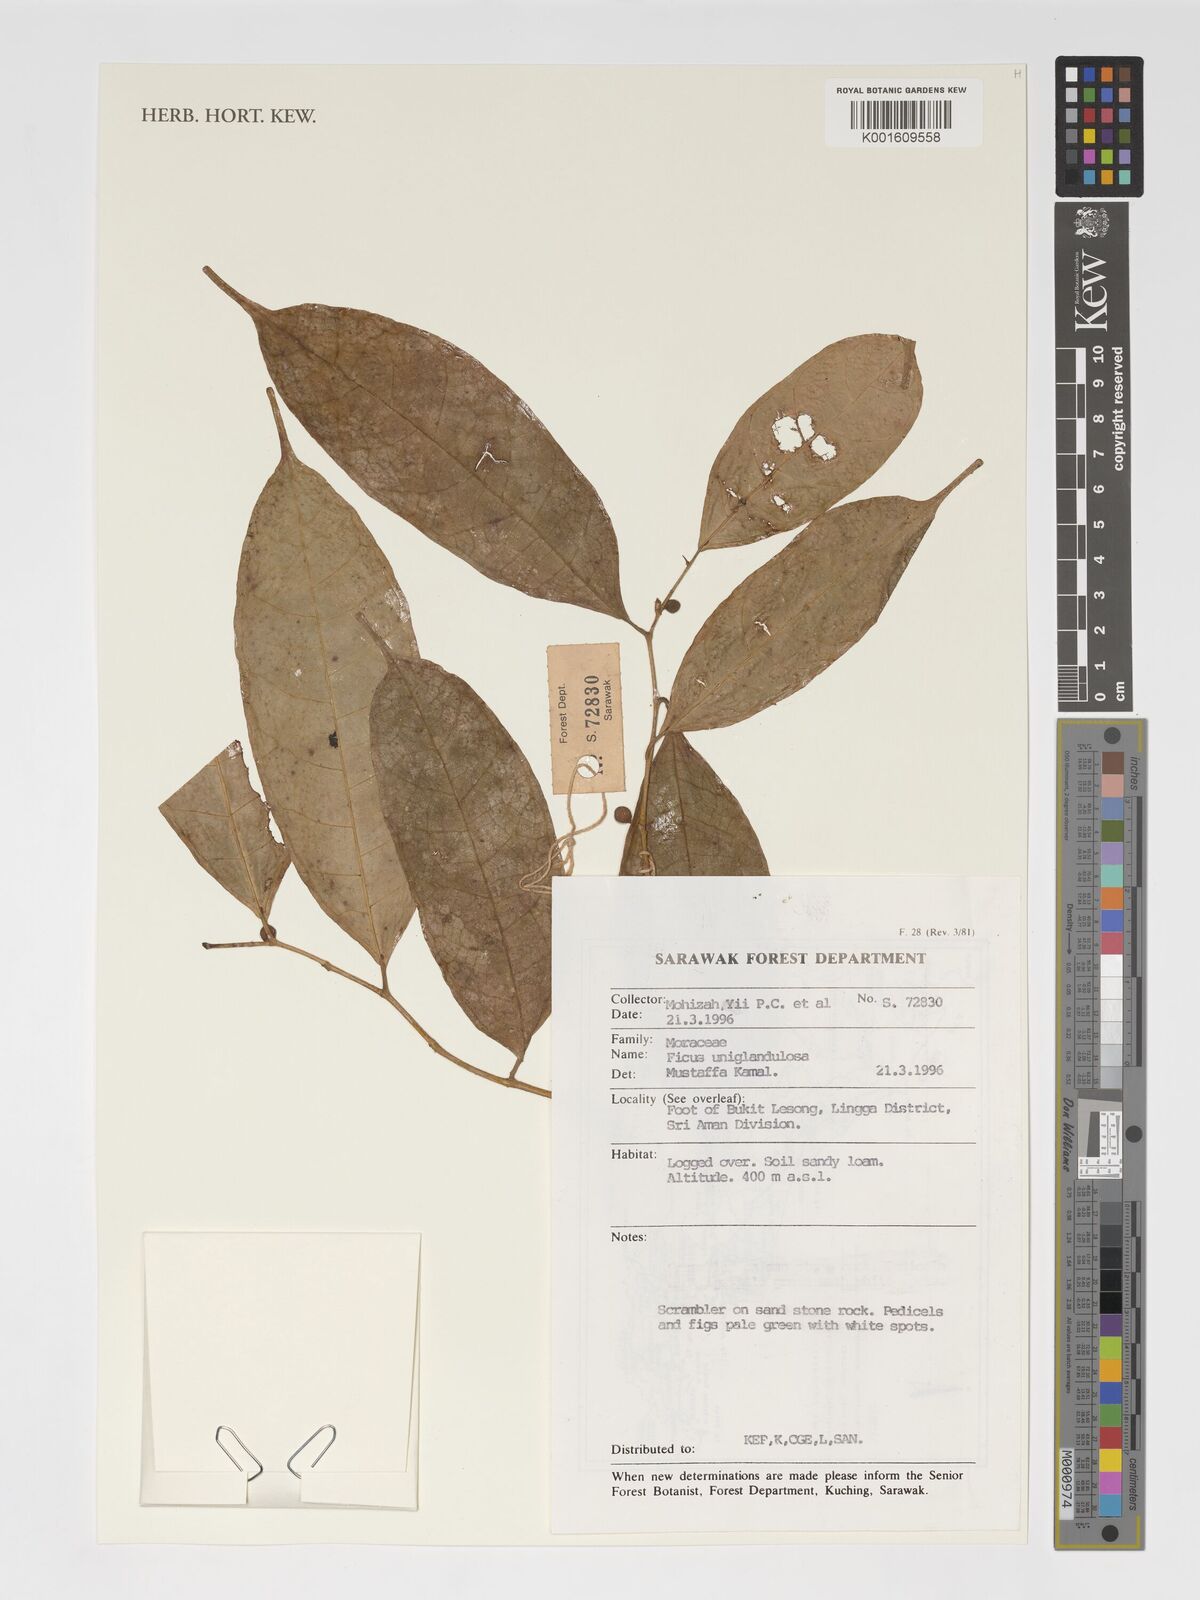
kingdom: Plantae
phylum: Tracheophyta
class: Magnoliopsida
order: Rosales
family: Moraceae
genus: Ficus
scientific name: Ficus uniglandulosa
